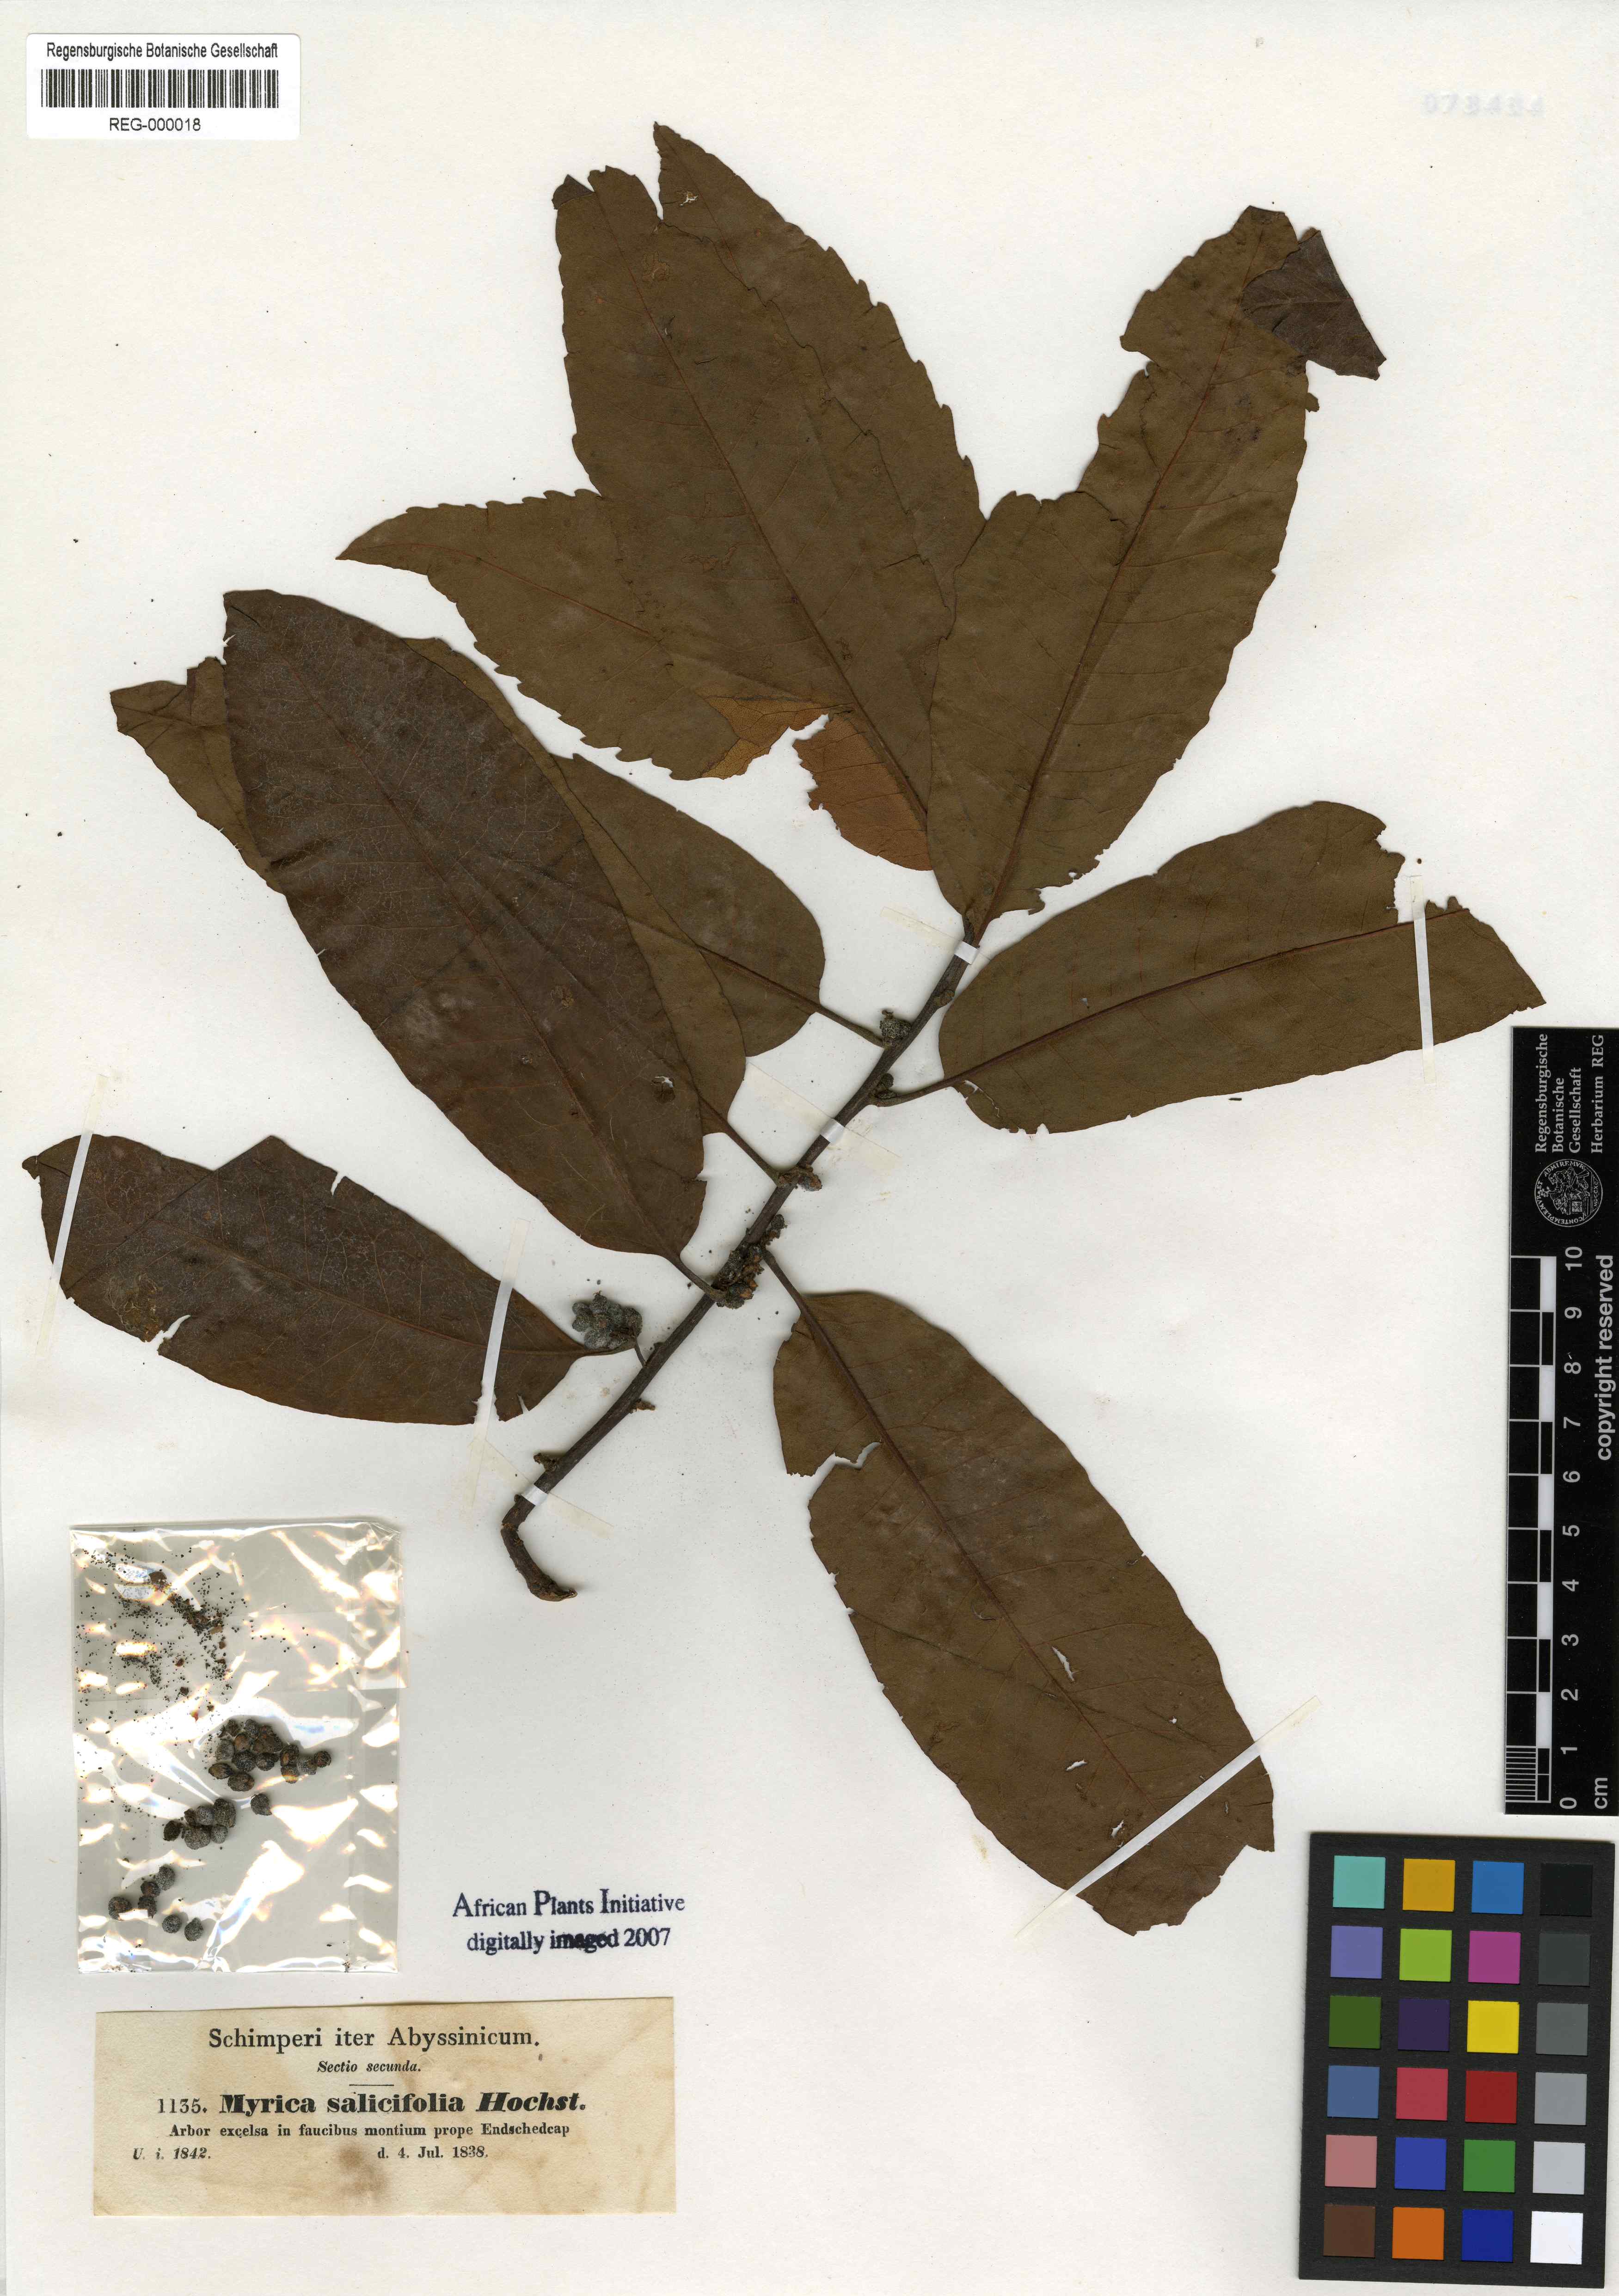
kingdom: Plantae
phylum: Tracheophyta
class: Magnoliopsida
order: Fagales
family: Myricaceae
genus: Morella
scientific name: Morella salicifolia
